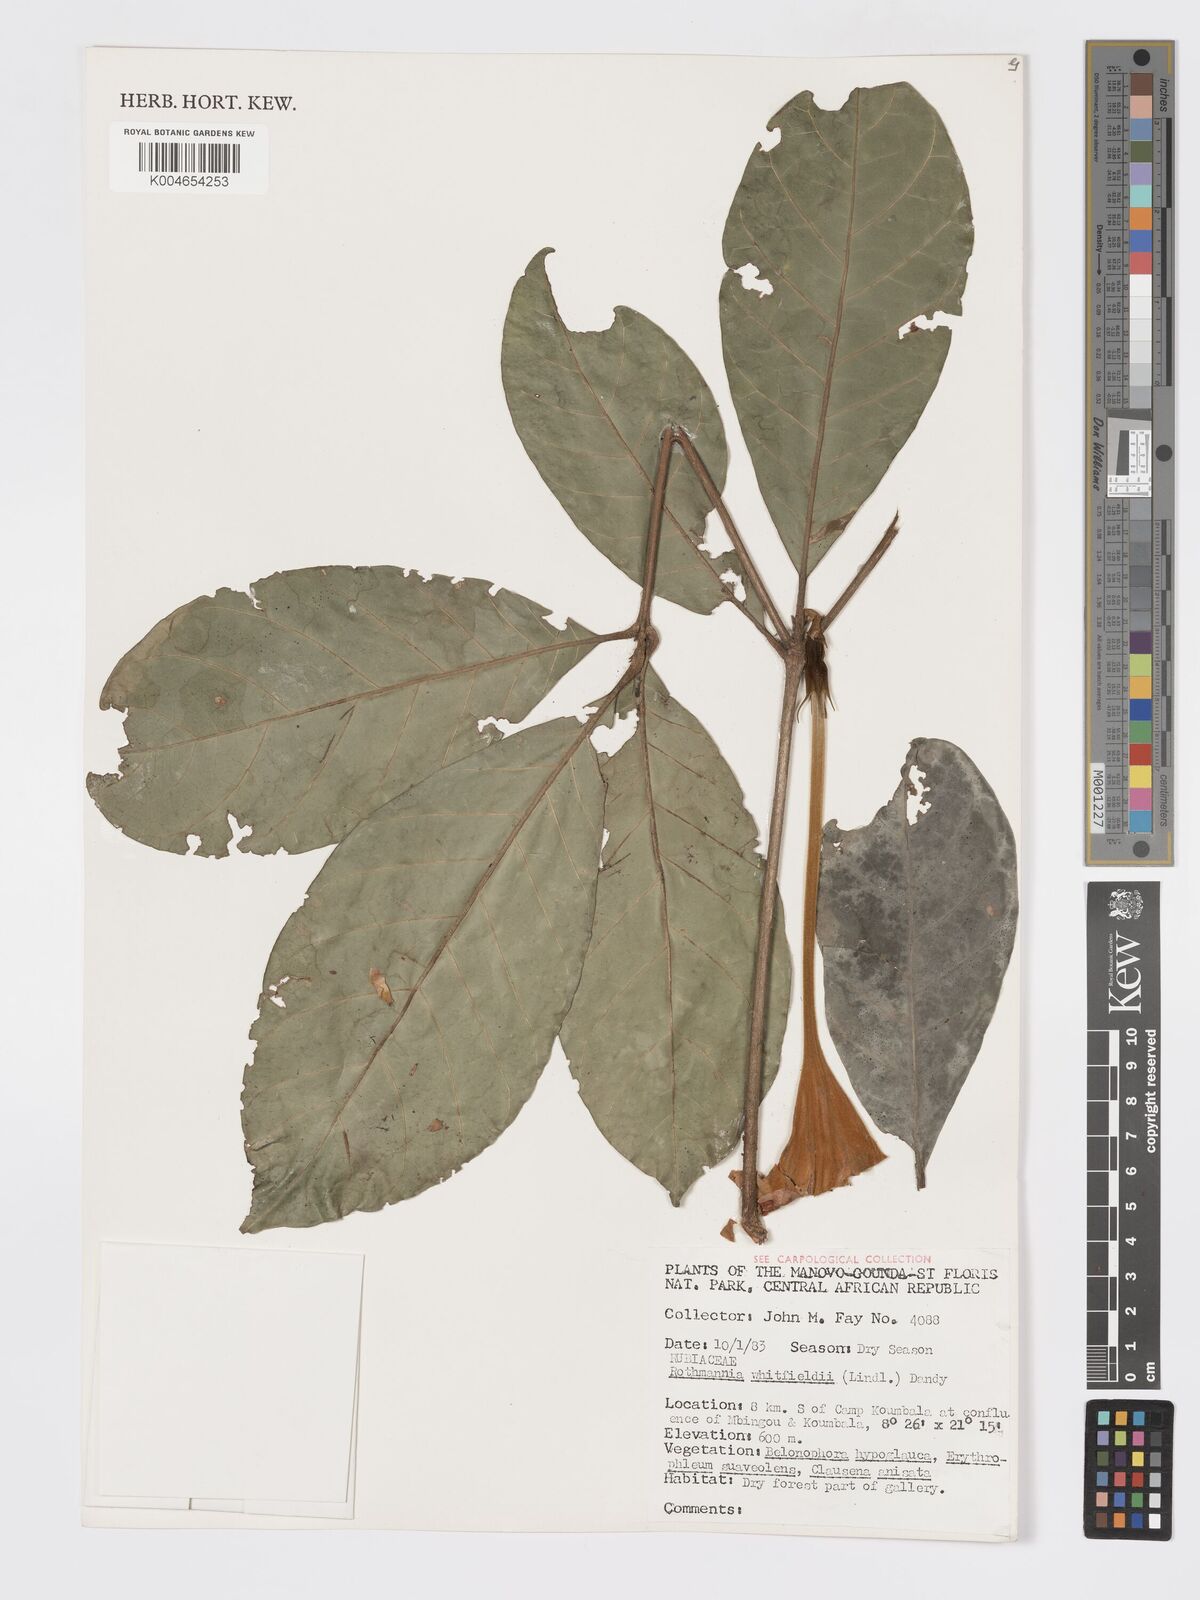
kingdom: Plantae
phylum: Tracheophyta
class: Magnoliopsida
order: Gentianales
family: Rubiaceae
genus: Rothmannia
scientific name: Rothmannia whitfieldii
